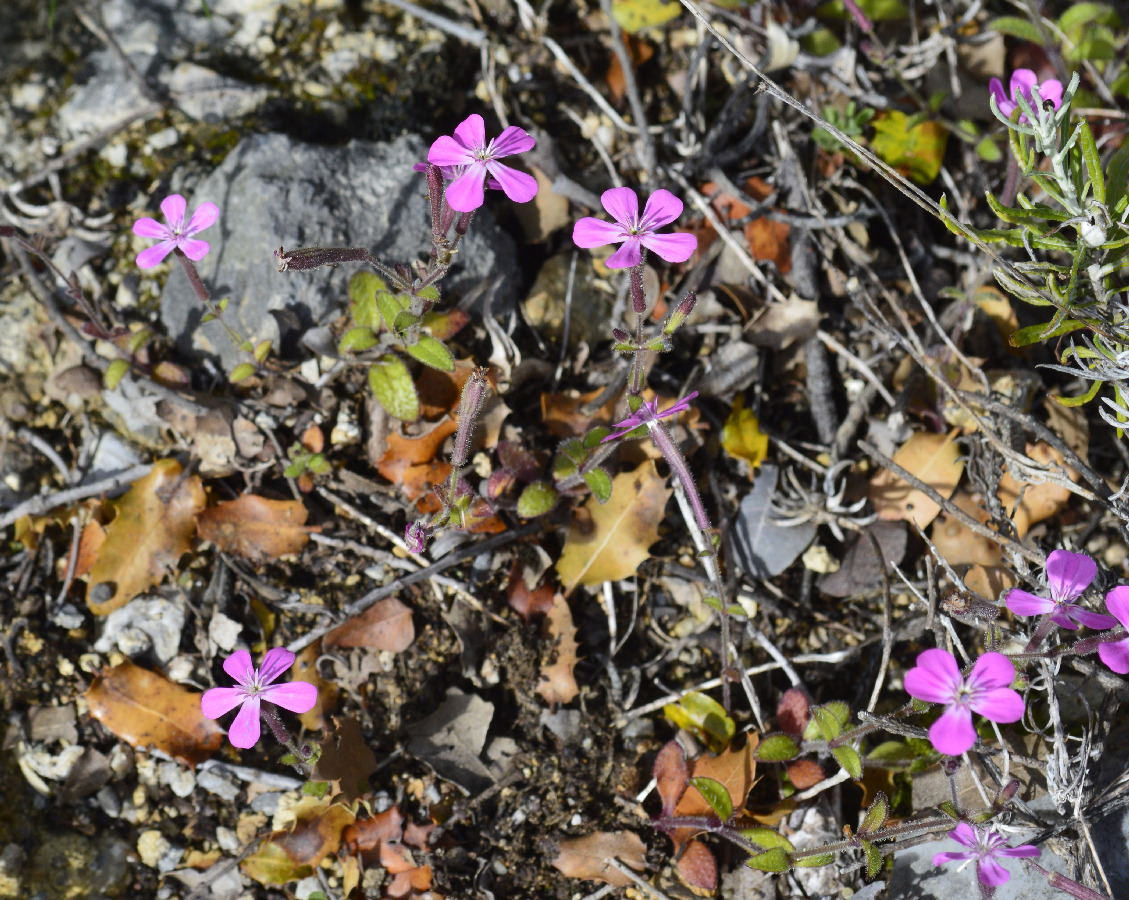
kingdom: Plantae
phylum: Tracheophyta
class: Magnoliopsida
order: Caryophyllales
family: Caryophyllaceae
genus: Silene
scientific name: Silene integripetala
